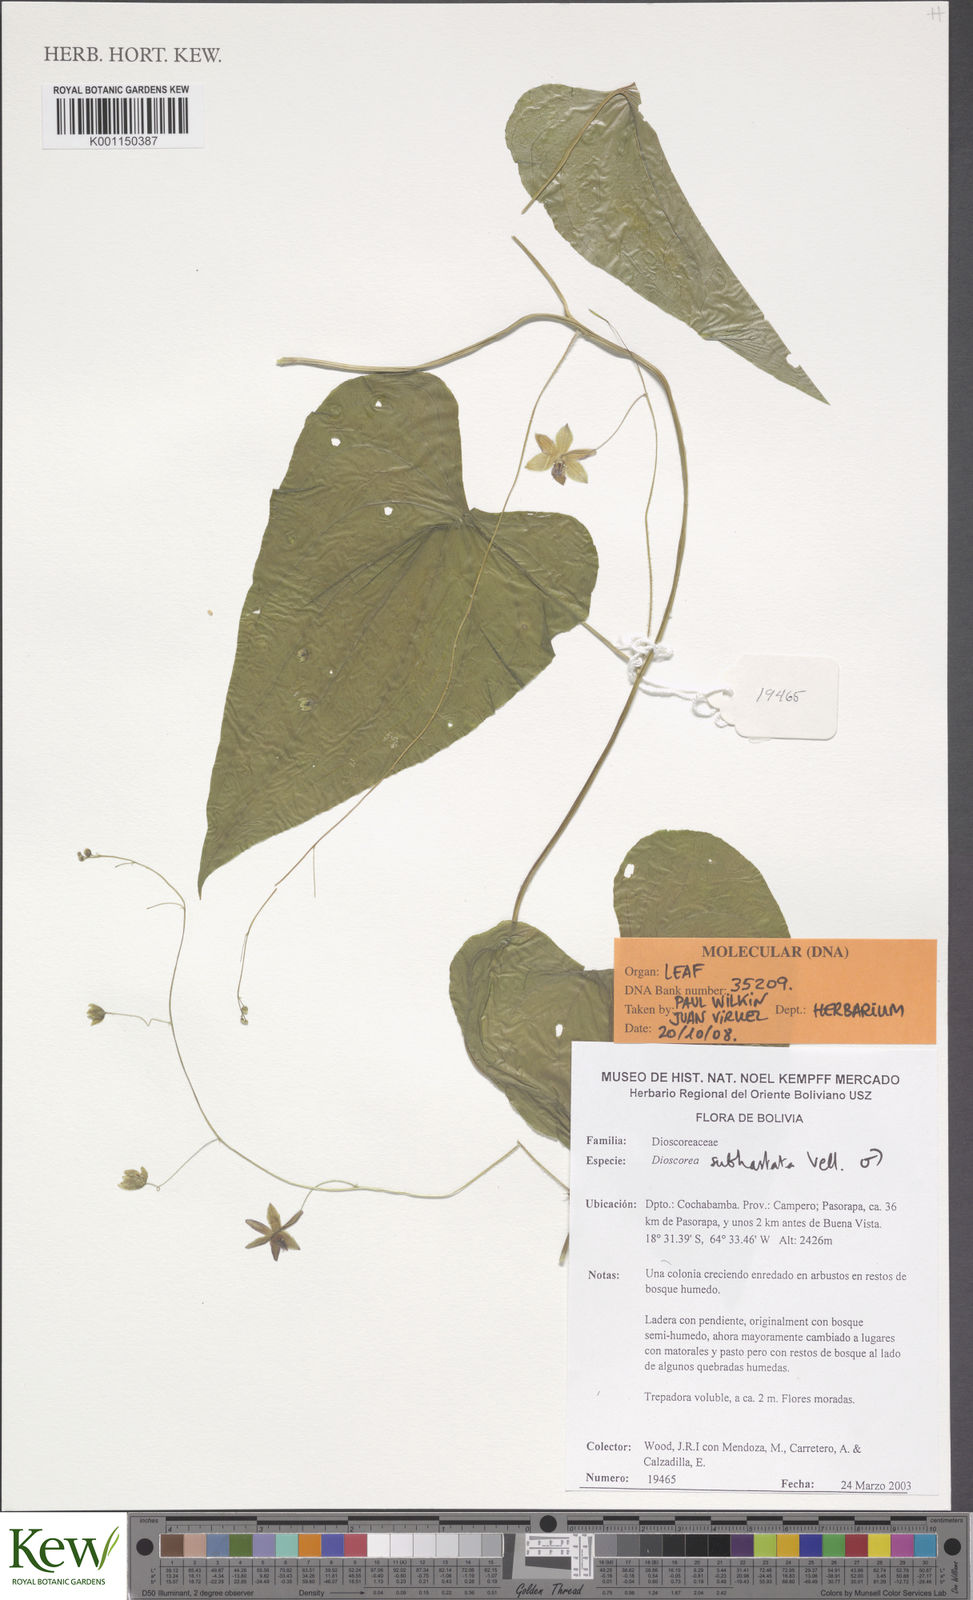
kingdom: Plantae
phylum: Tracheophyta
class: Liliopsida
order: Dioscoreales
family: Dioscoreaceae
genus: Dioscorea
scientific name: Dioscorea subhastata
